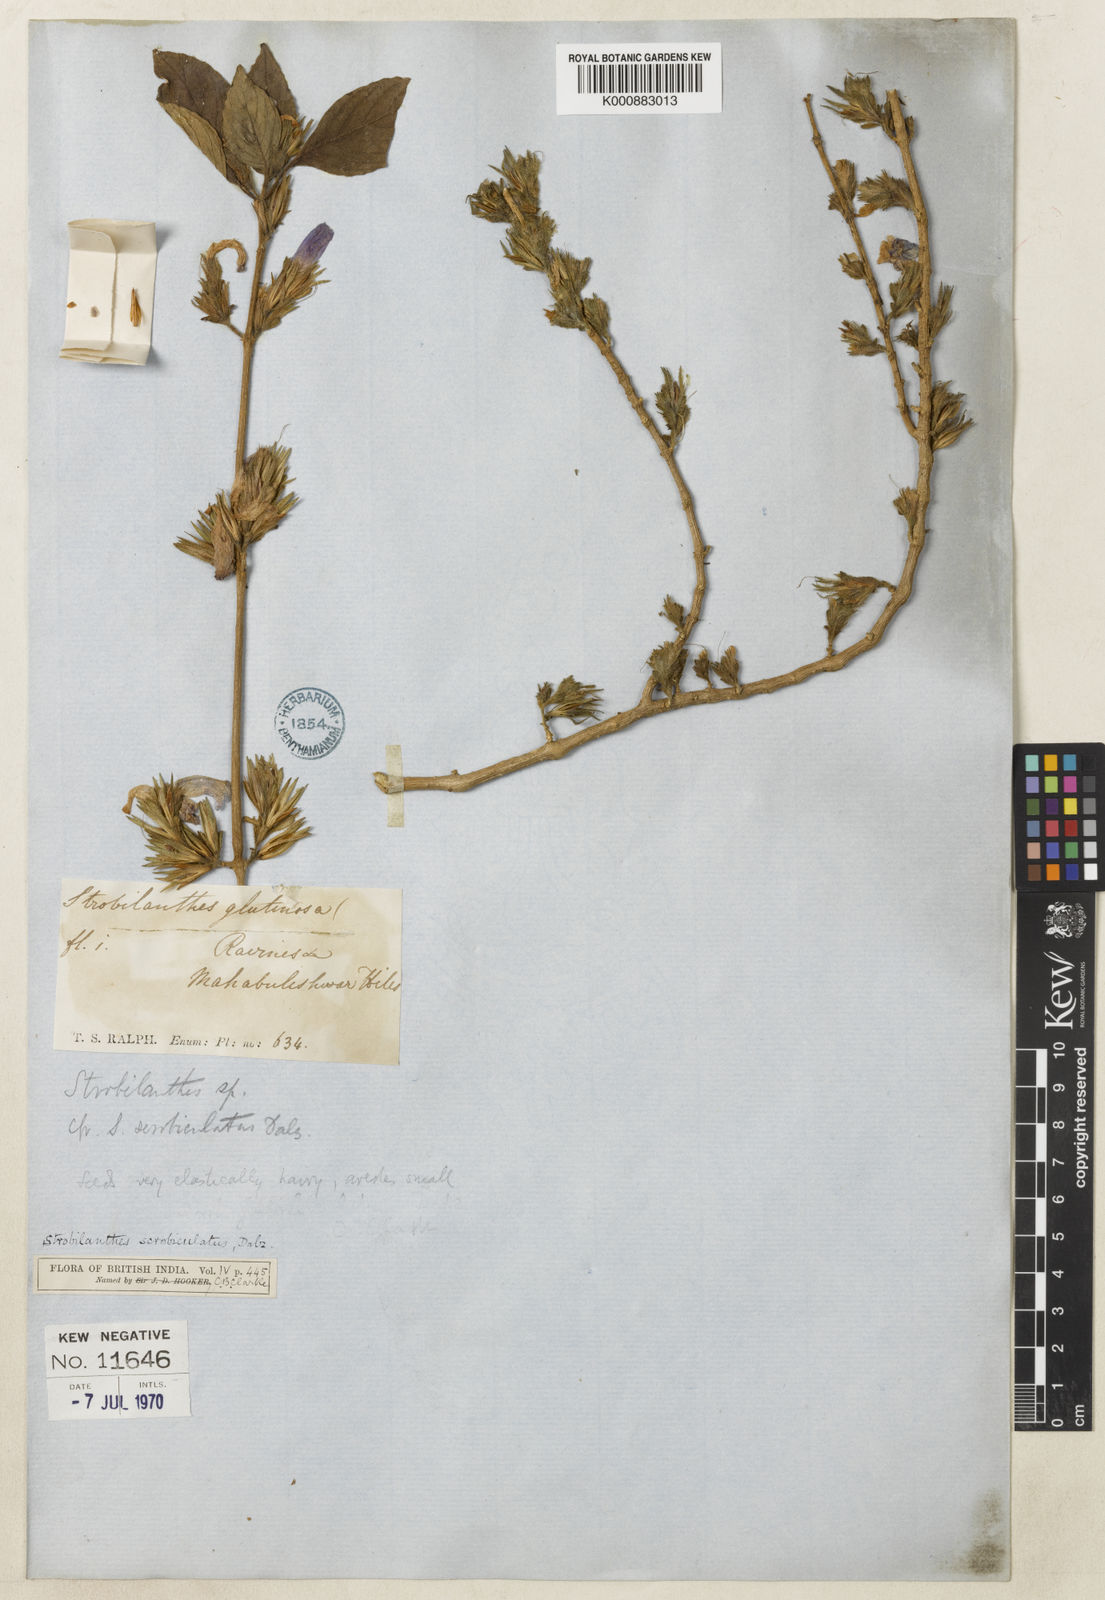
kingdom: Plantae
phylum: Tracheophyta
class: Magnoliopsida
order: Lamiales
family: Acanthaceae
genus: Strobilanthes
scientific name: Strobilanthes scrobiculata
